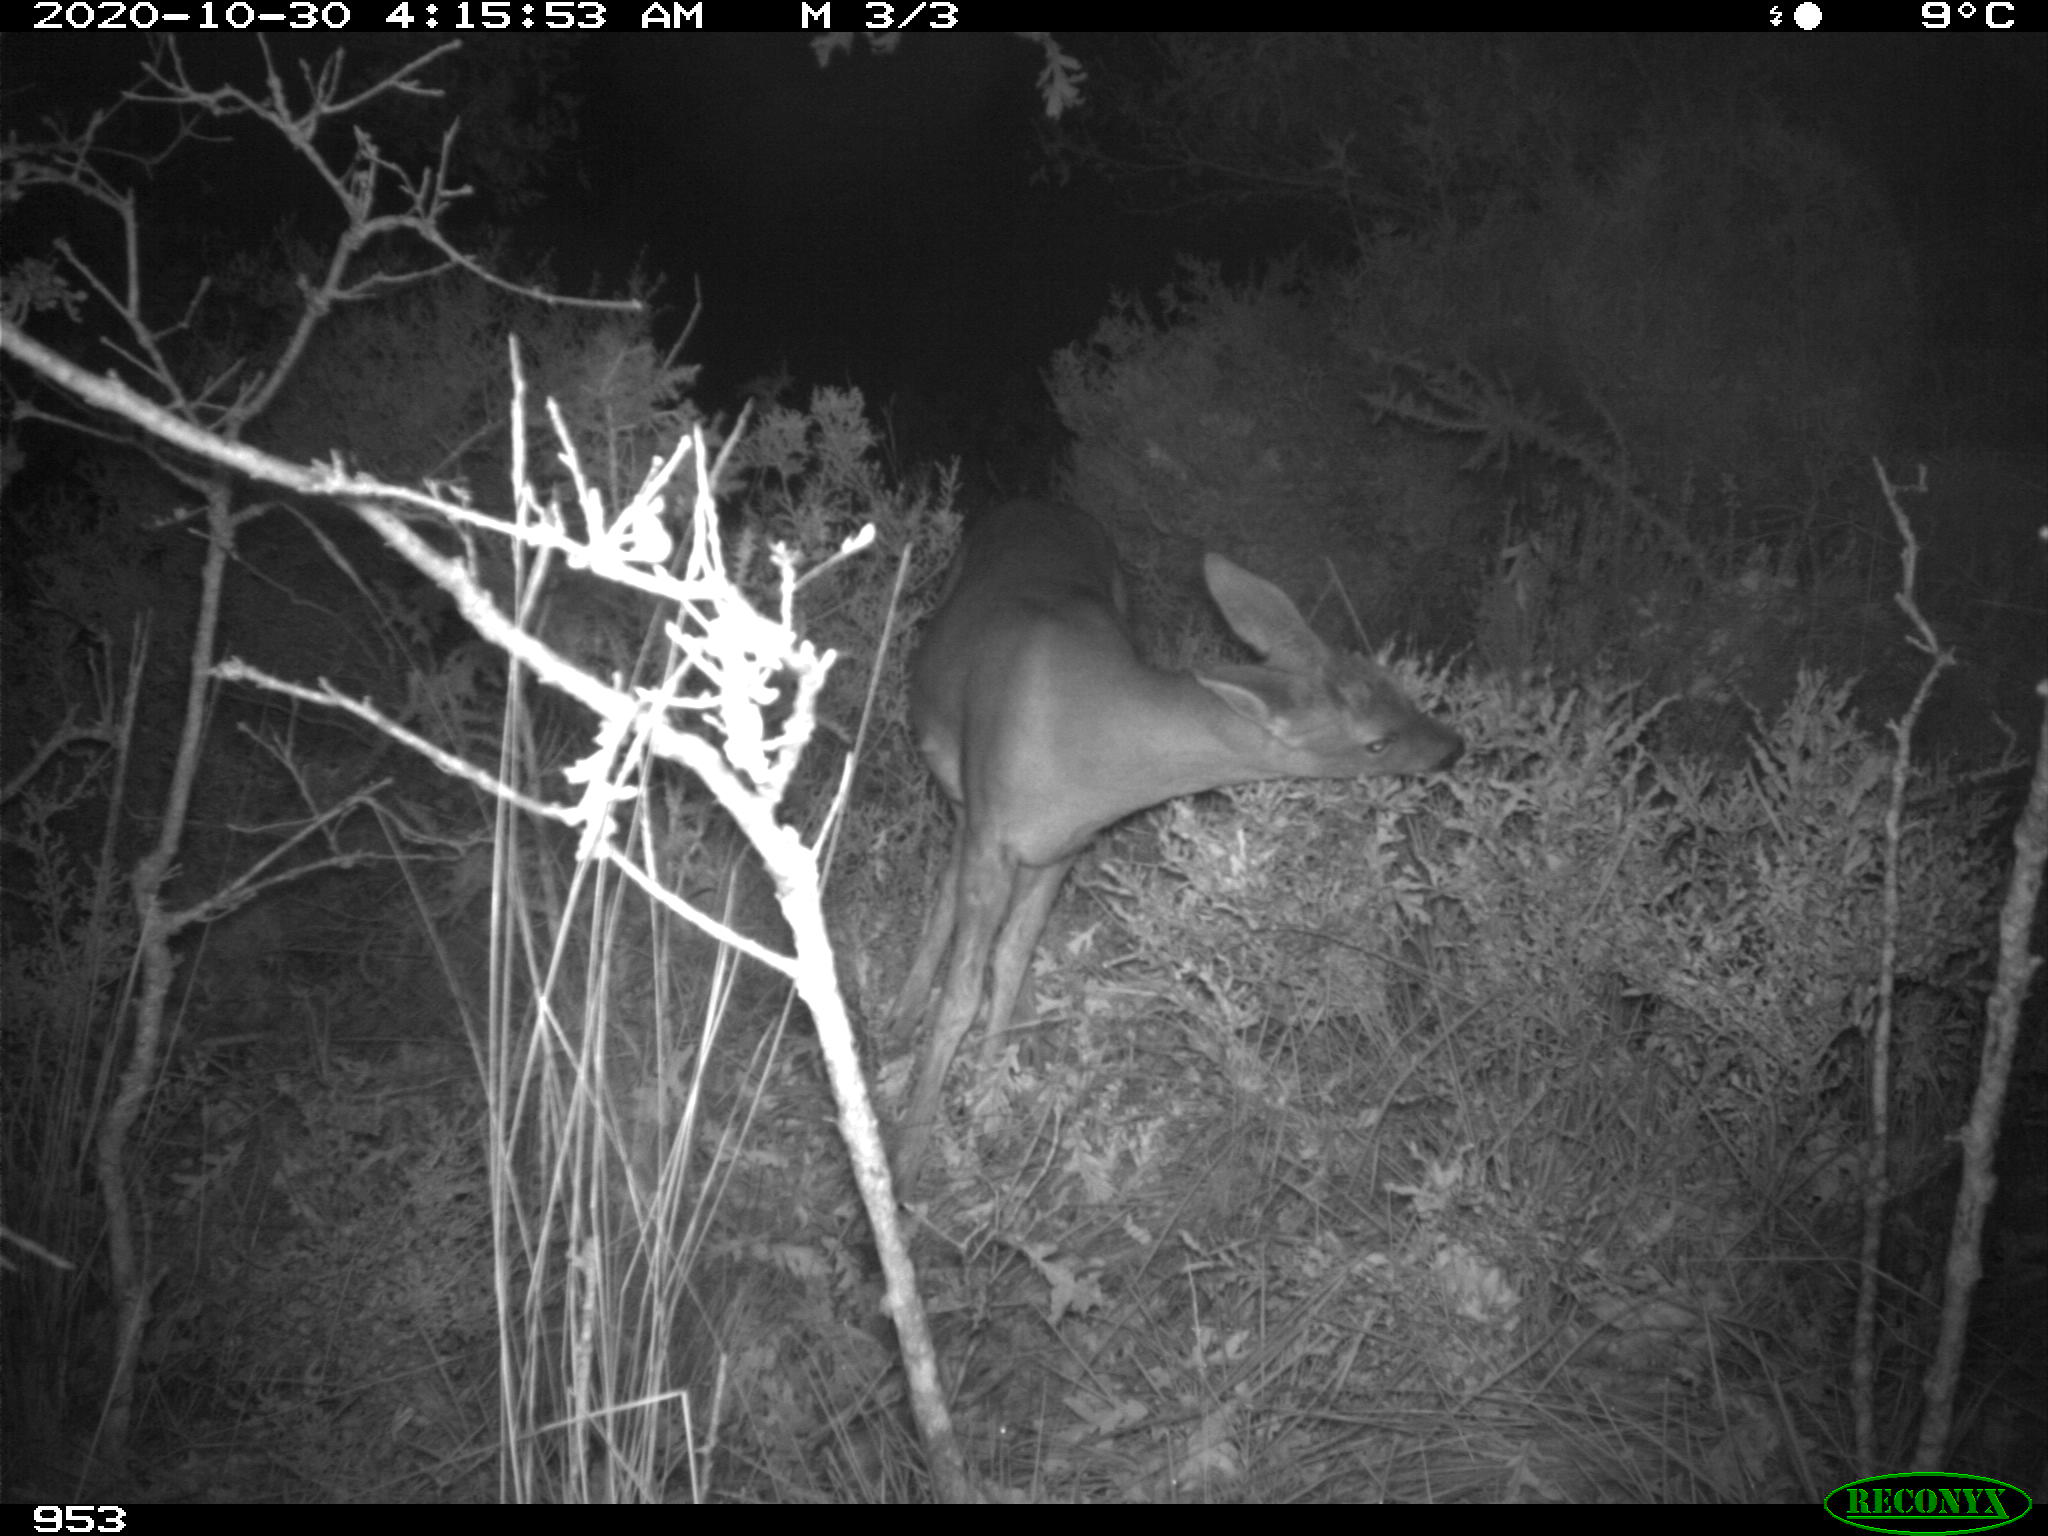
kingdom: Animalia
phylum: Chordata
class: Mammalia
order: Artiodactyla
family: Cervidae
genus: Capreolus
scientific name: Capreolus capreolus
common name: Western roe deer
